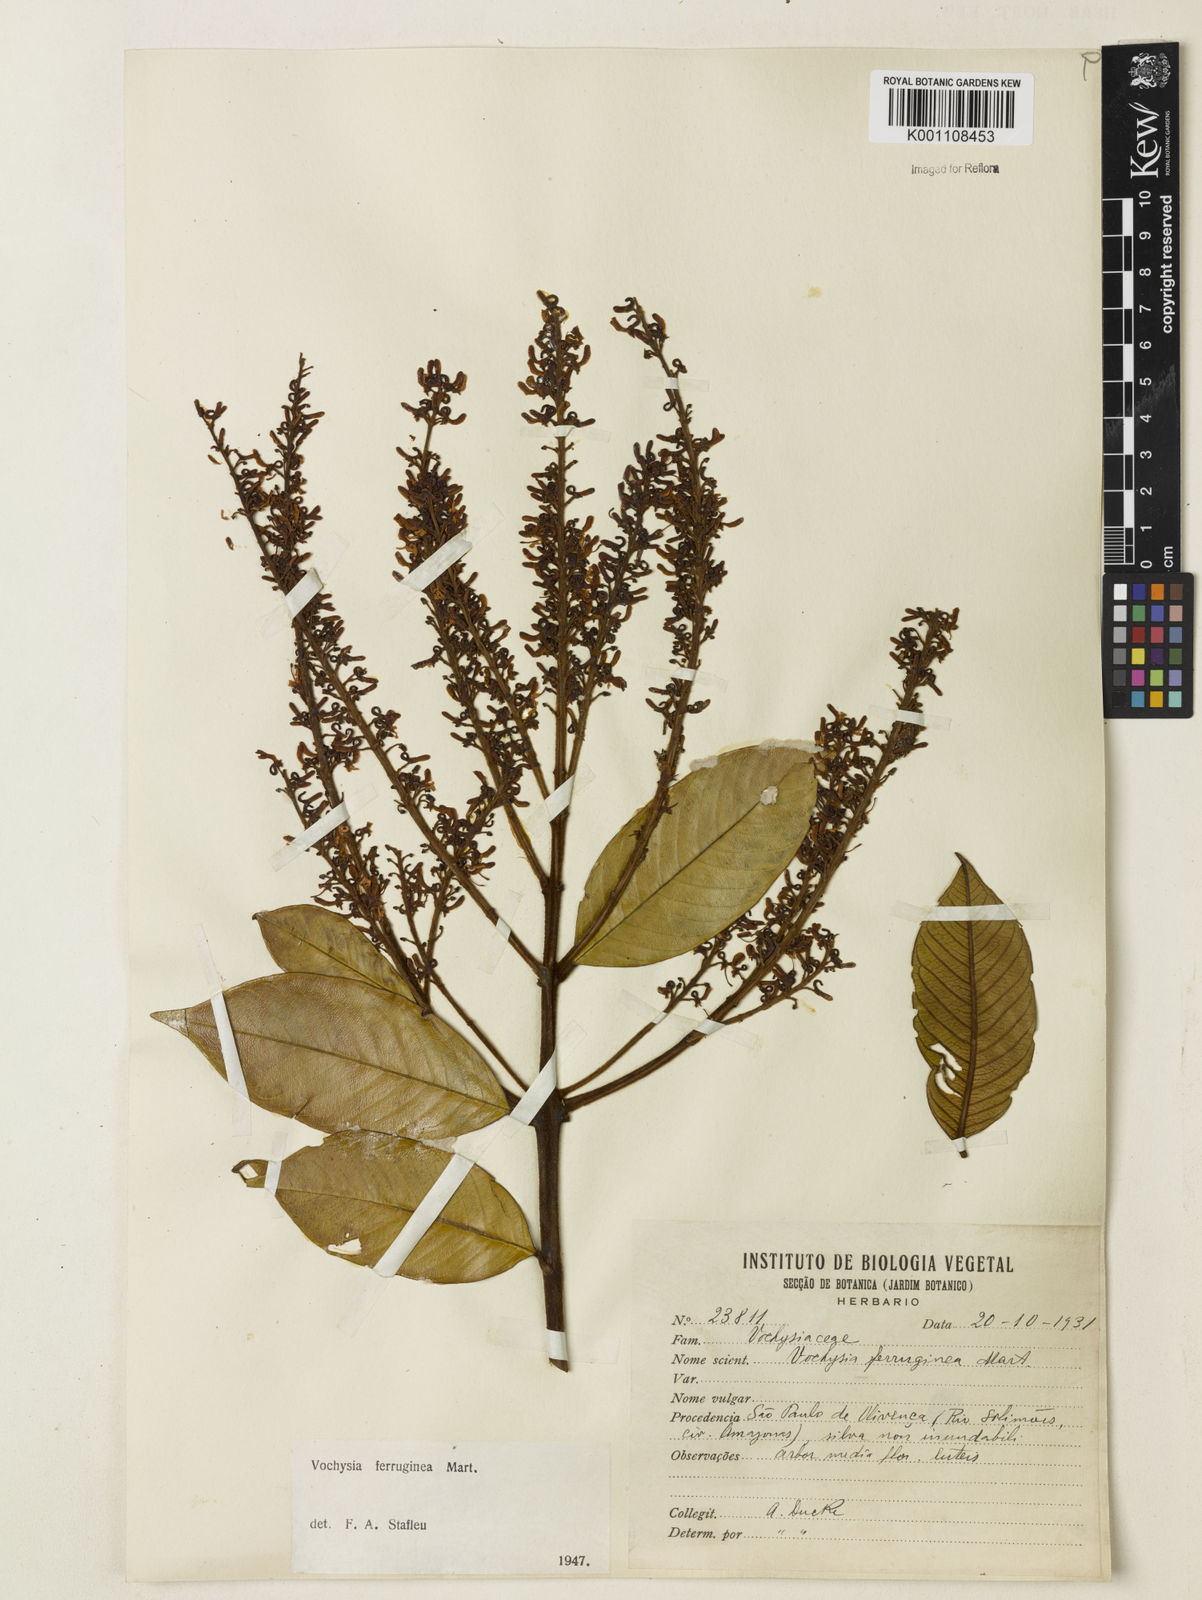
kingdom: Plantae
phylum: Tracheophyta
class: Magnoliopsida
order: Myrtales
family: Vochysiaceae
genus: Vochysia
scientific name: Vochysia ferruginea
